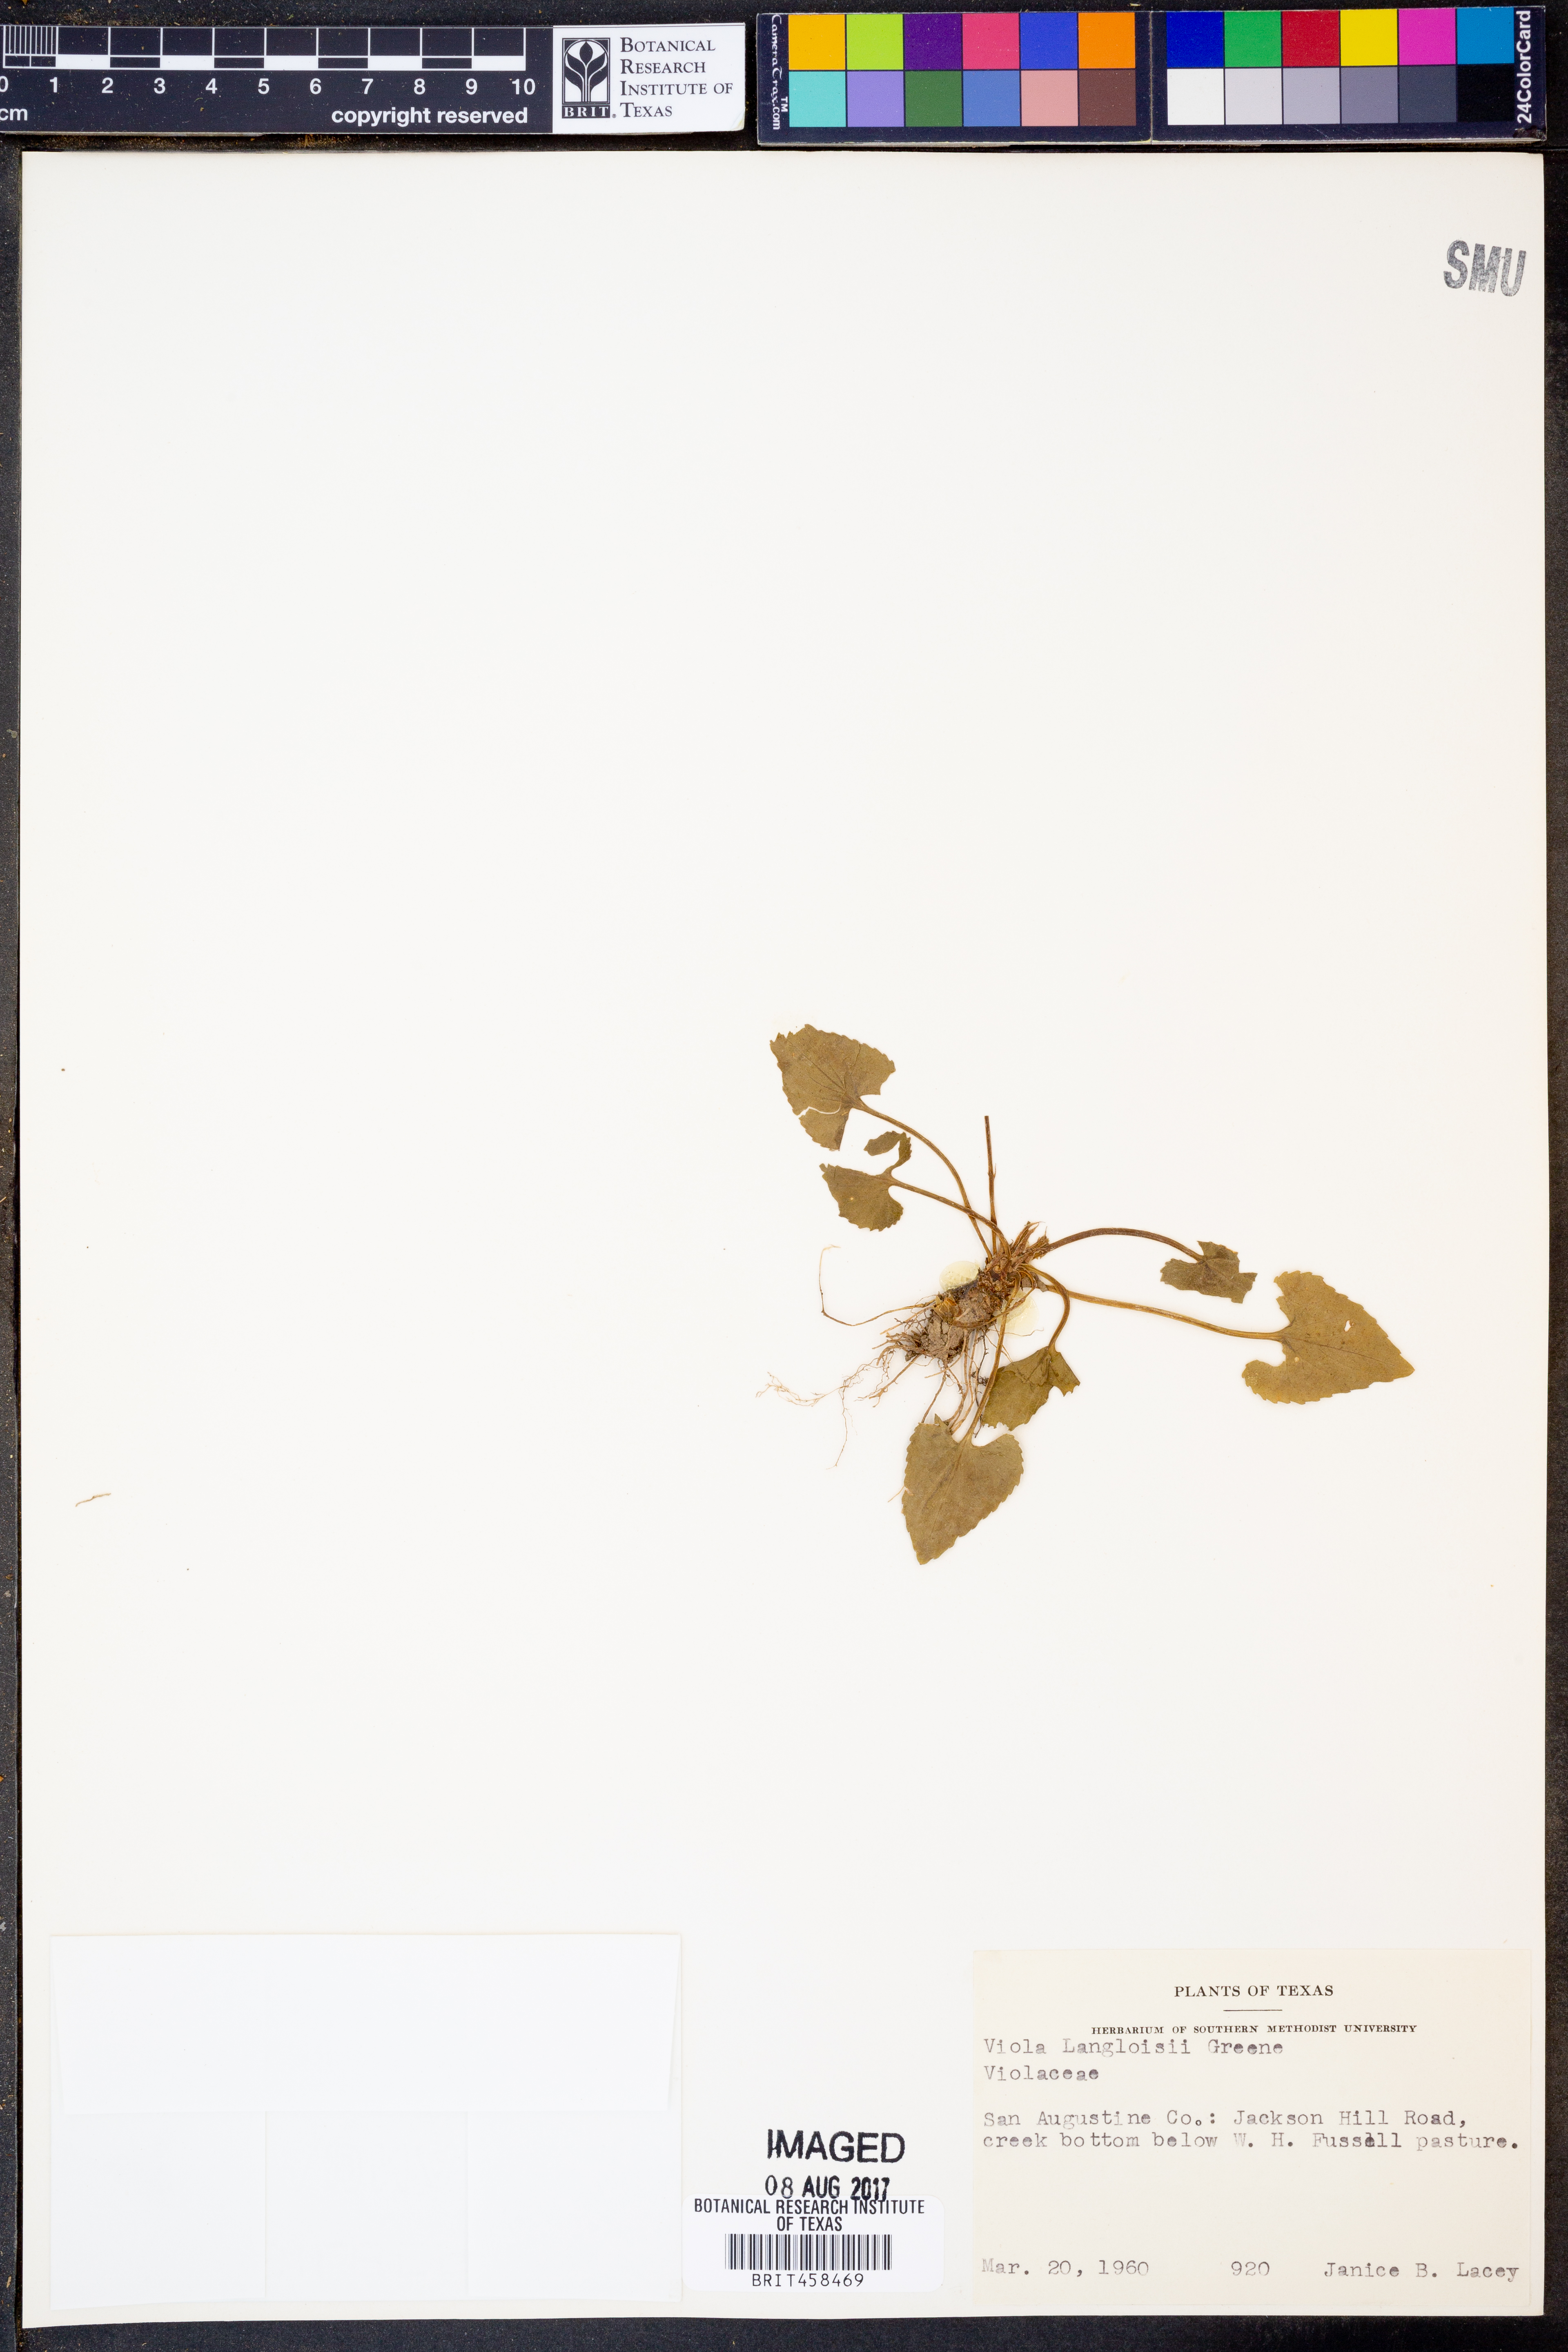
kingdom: Plantae
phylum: Tracheophyta
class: Magnoliopsida
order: Malpighiales
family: Violaceae
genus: Viola
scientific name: Viola langloisii
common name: Langlois' violet
